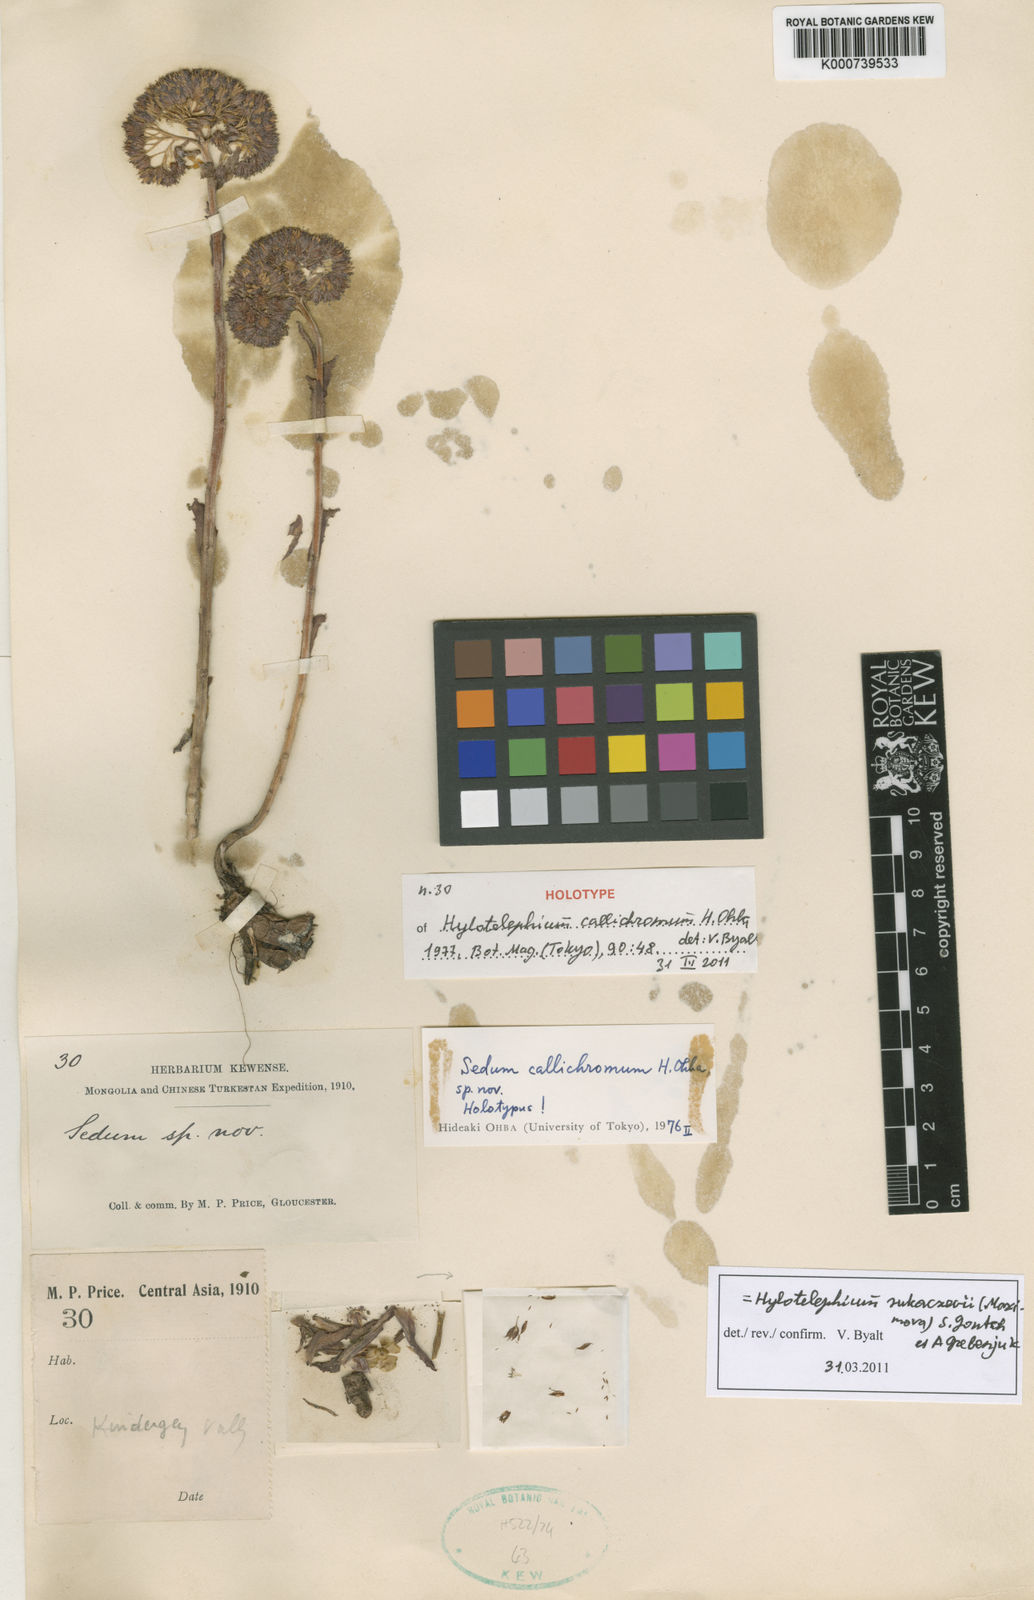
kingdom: Plantae
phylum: Tracheophyta
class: Magnoliopsida
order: Saxifragales
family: Crassulaceae
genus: Hylotelephium
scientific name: Hylotelephium callichromum
